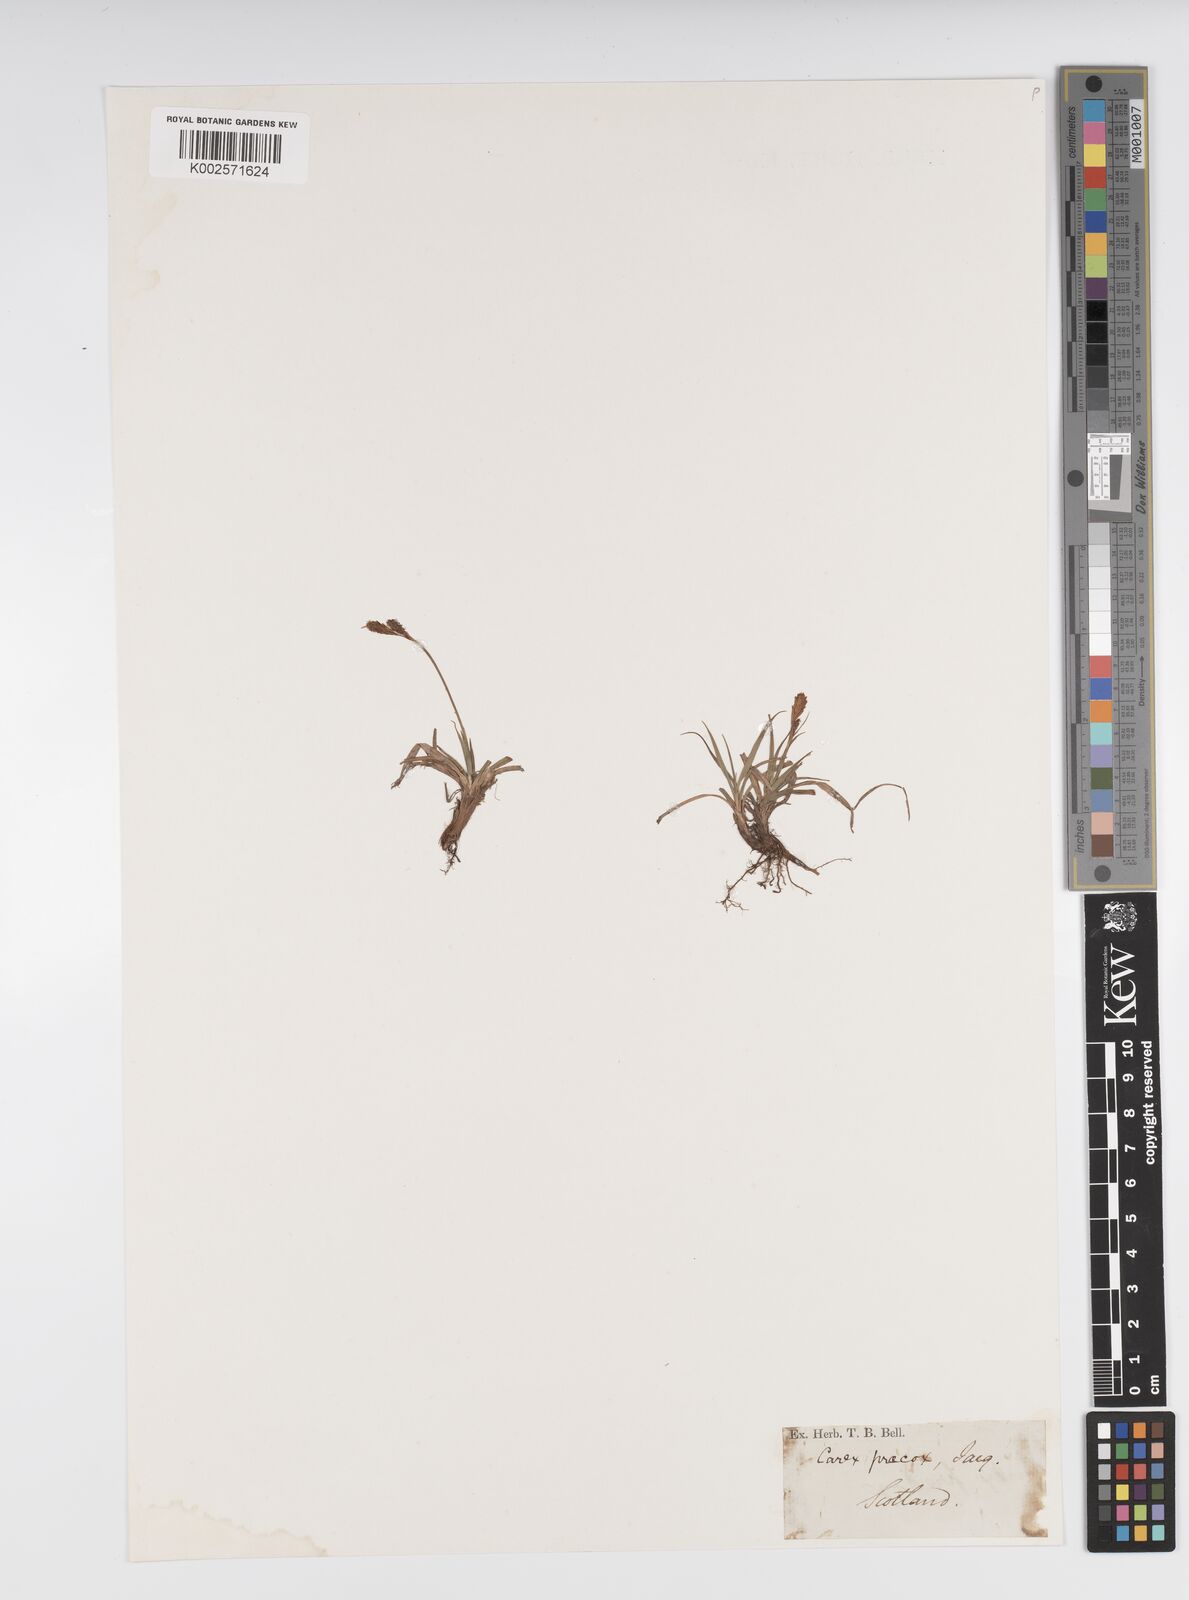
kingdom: Plantae
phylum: Tracheophyta
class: Liliopsida
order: Poales
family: Cyperaceae
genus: Carex
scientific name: Carex caryophyllea
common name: Spring sedge
